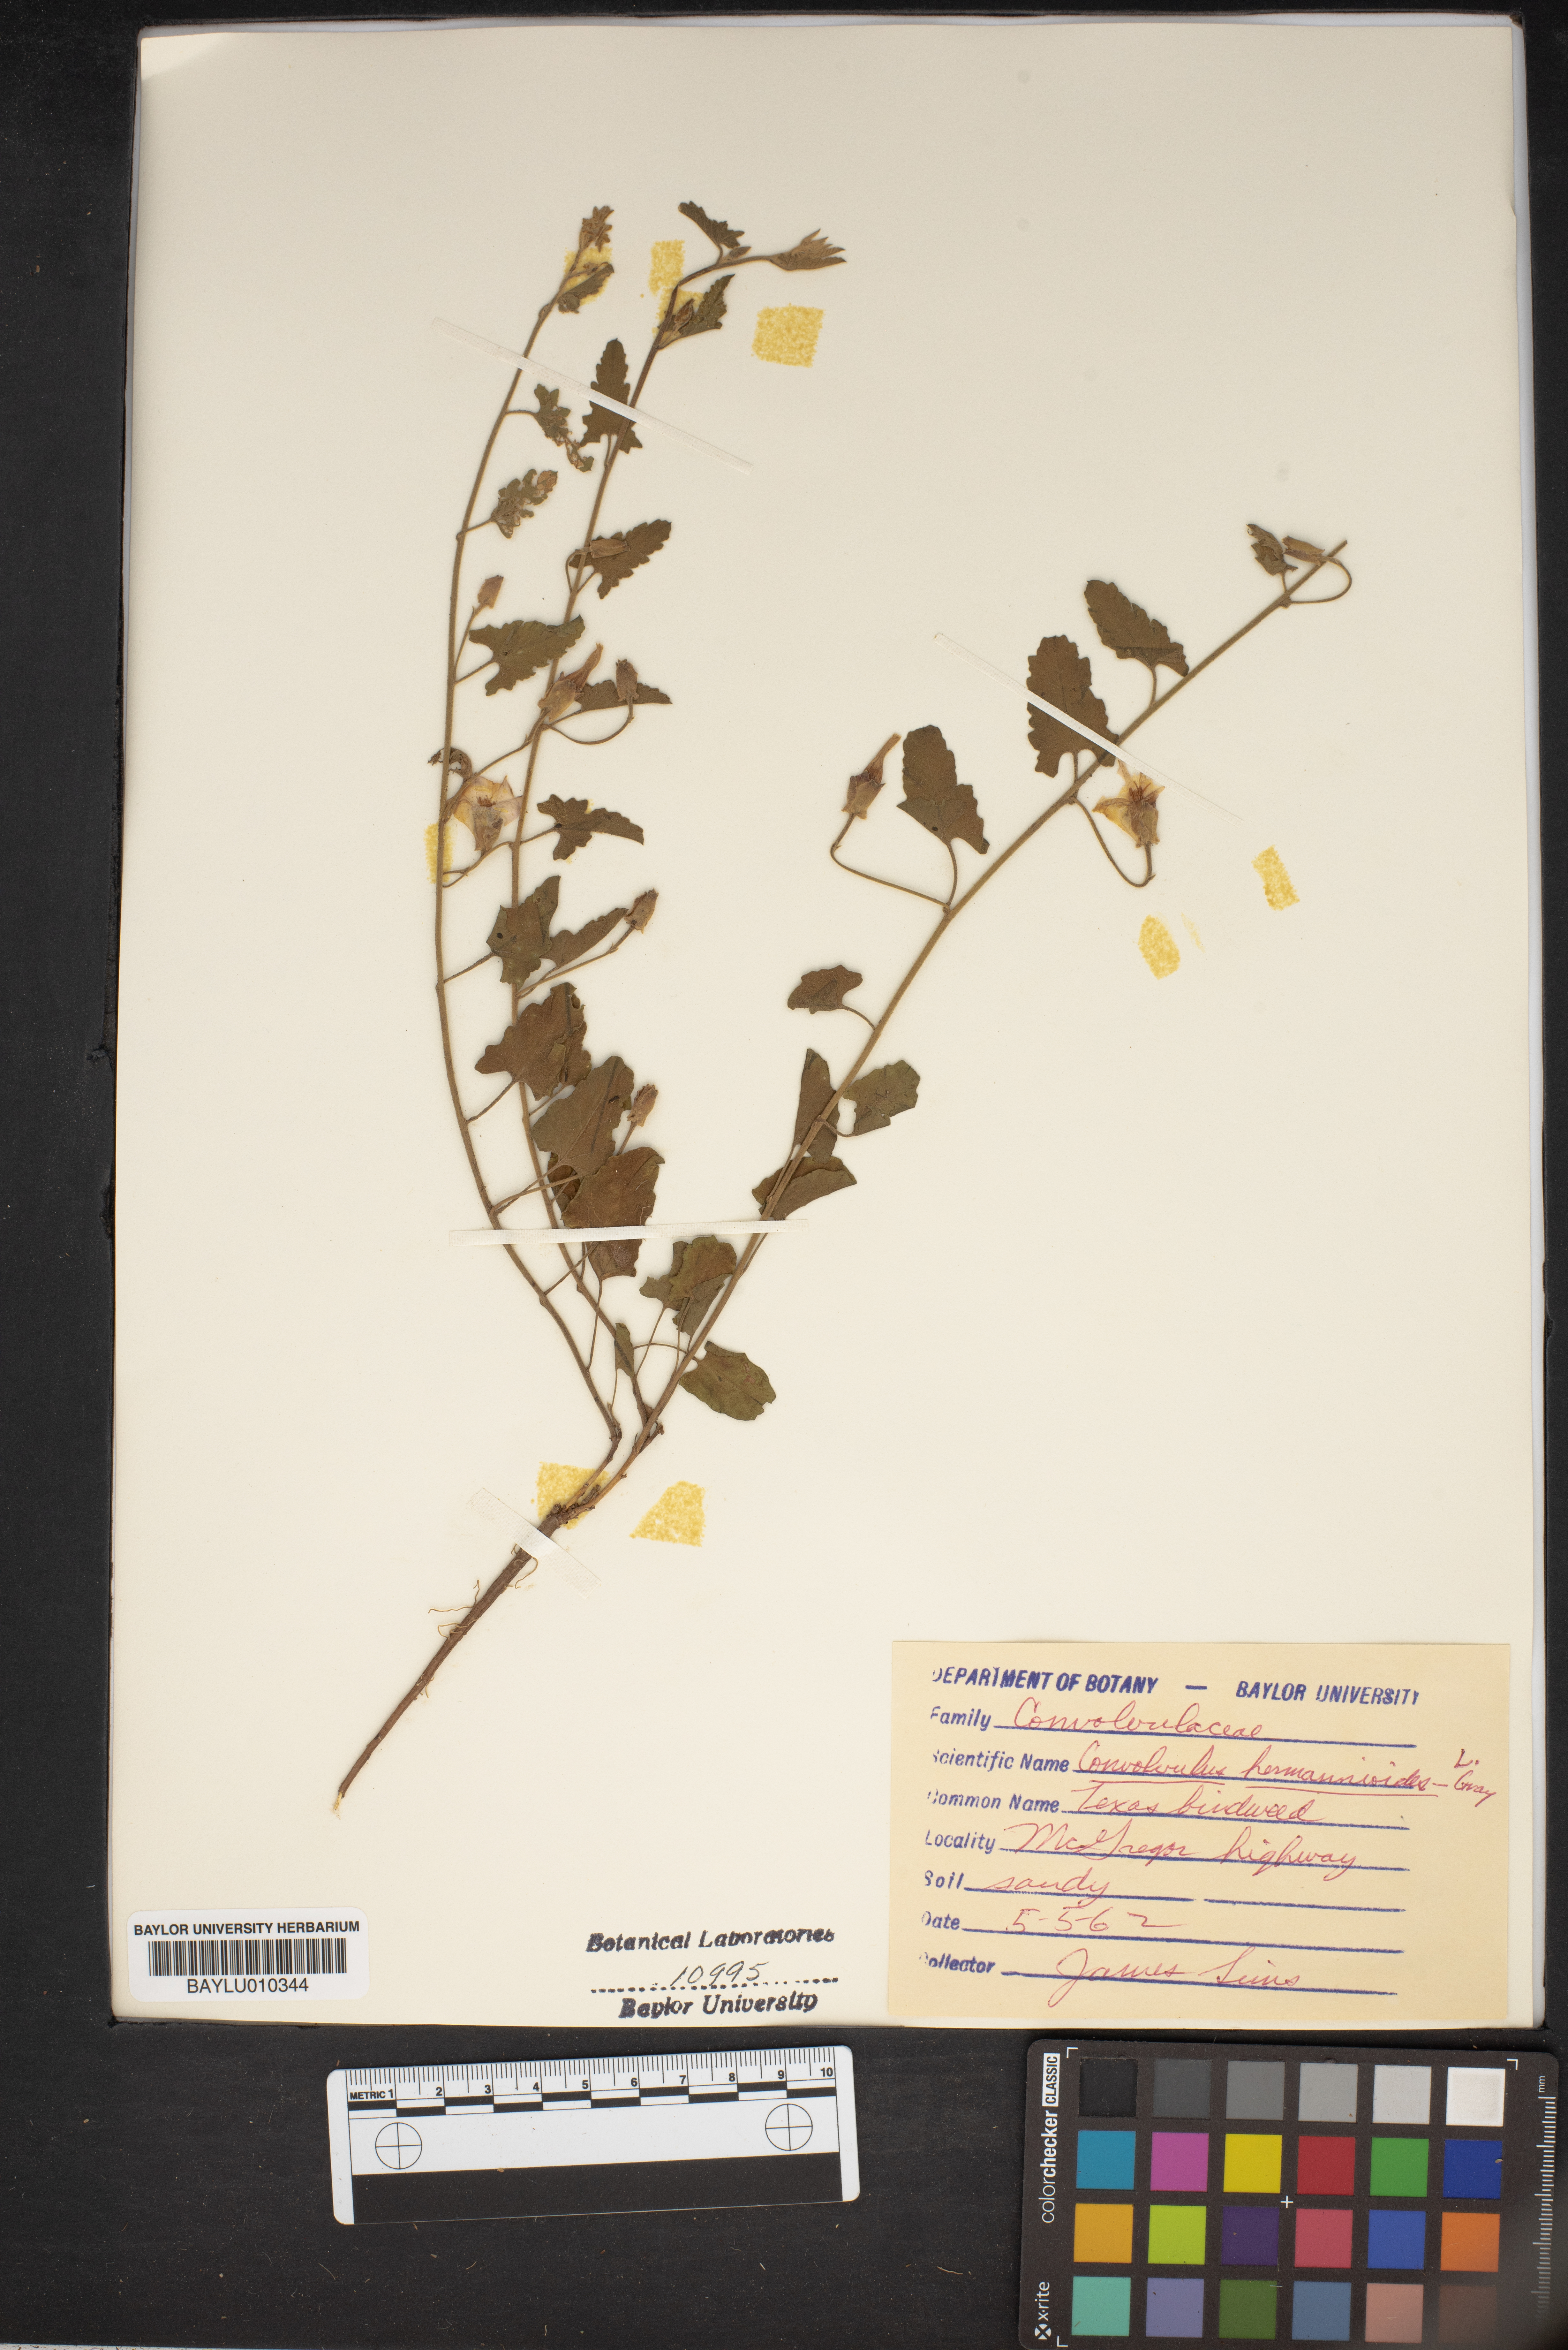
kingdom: Plantae
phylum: Tracheophyta
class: Magnoliopsida
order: Solanales
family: Convolvulaceae
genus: Convolvulus
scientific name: Convolvulus equitans
